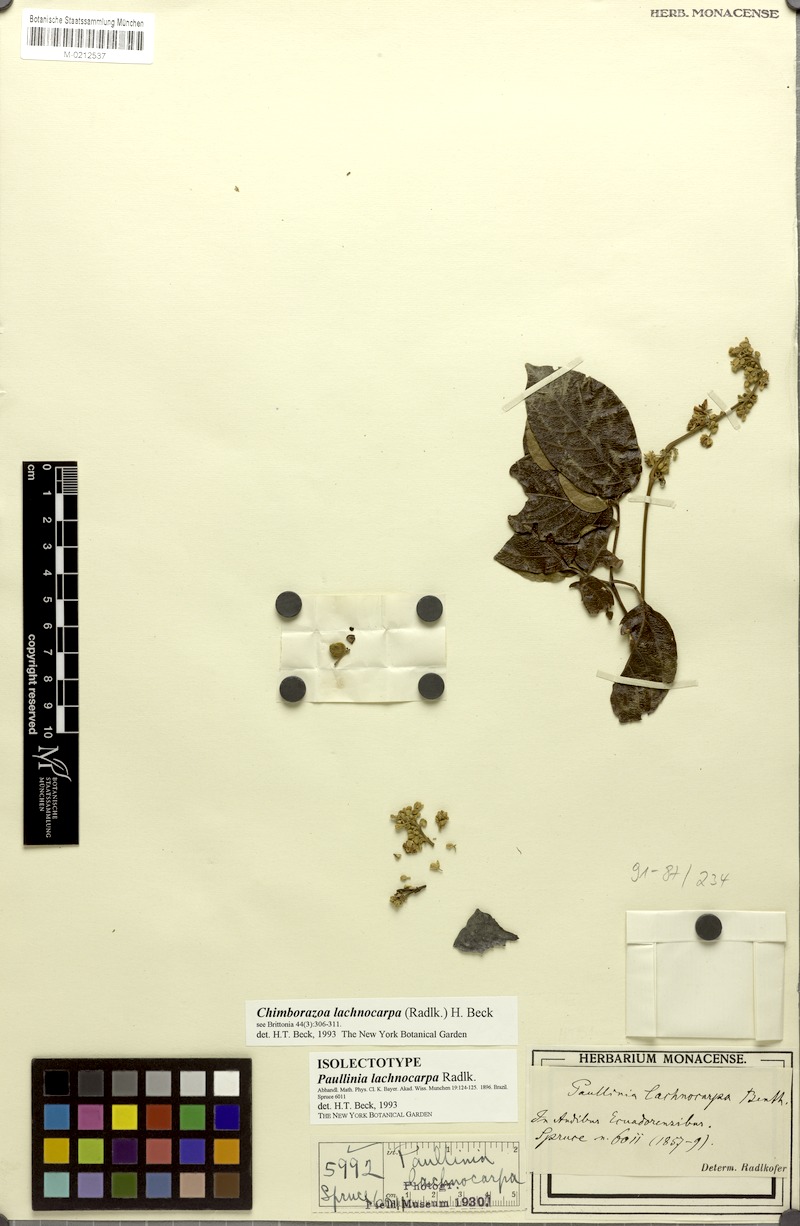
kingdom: Plantae
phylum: Tracheophyta
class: Magnoliopsida
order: Sapindales
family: Sapindaceae
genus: Serjania
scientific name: Serjania lachnocarpa
